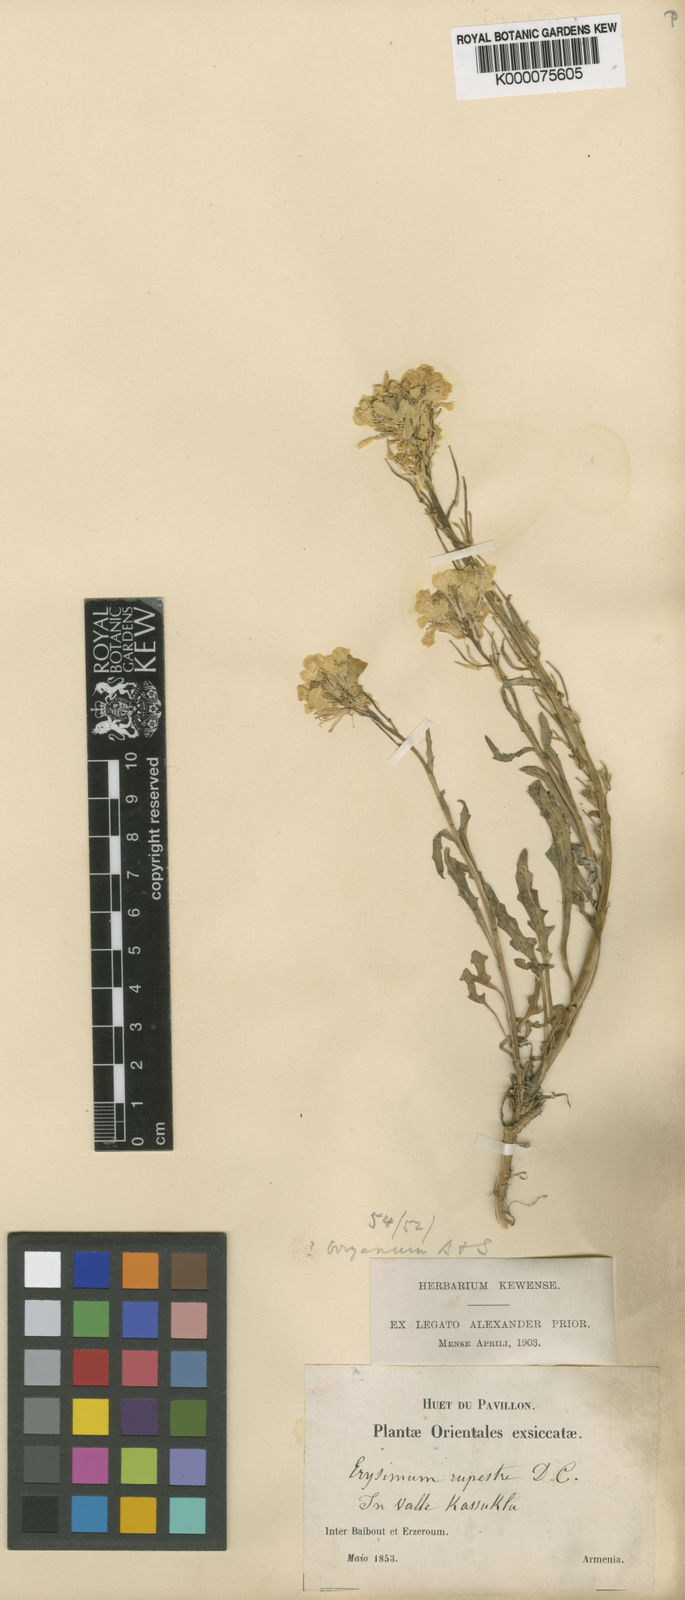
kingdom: Plantae
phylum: Tracheophyta
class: Magnoliopsida
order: Brassicales
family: Brassicaceae
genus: Erysimum
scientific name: Erysimum pulchellum
